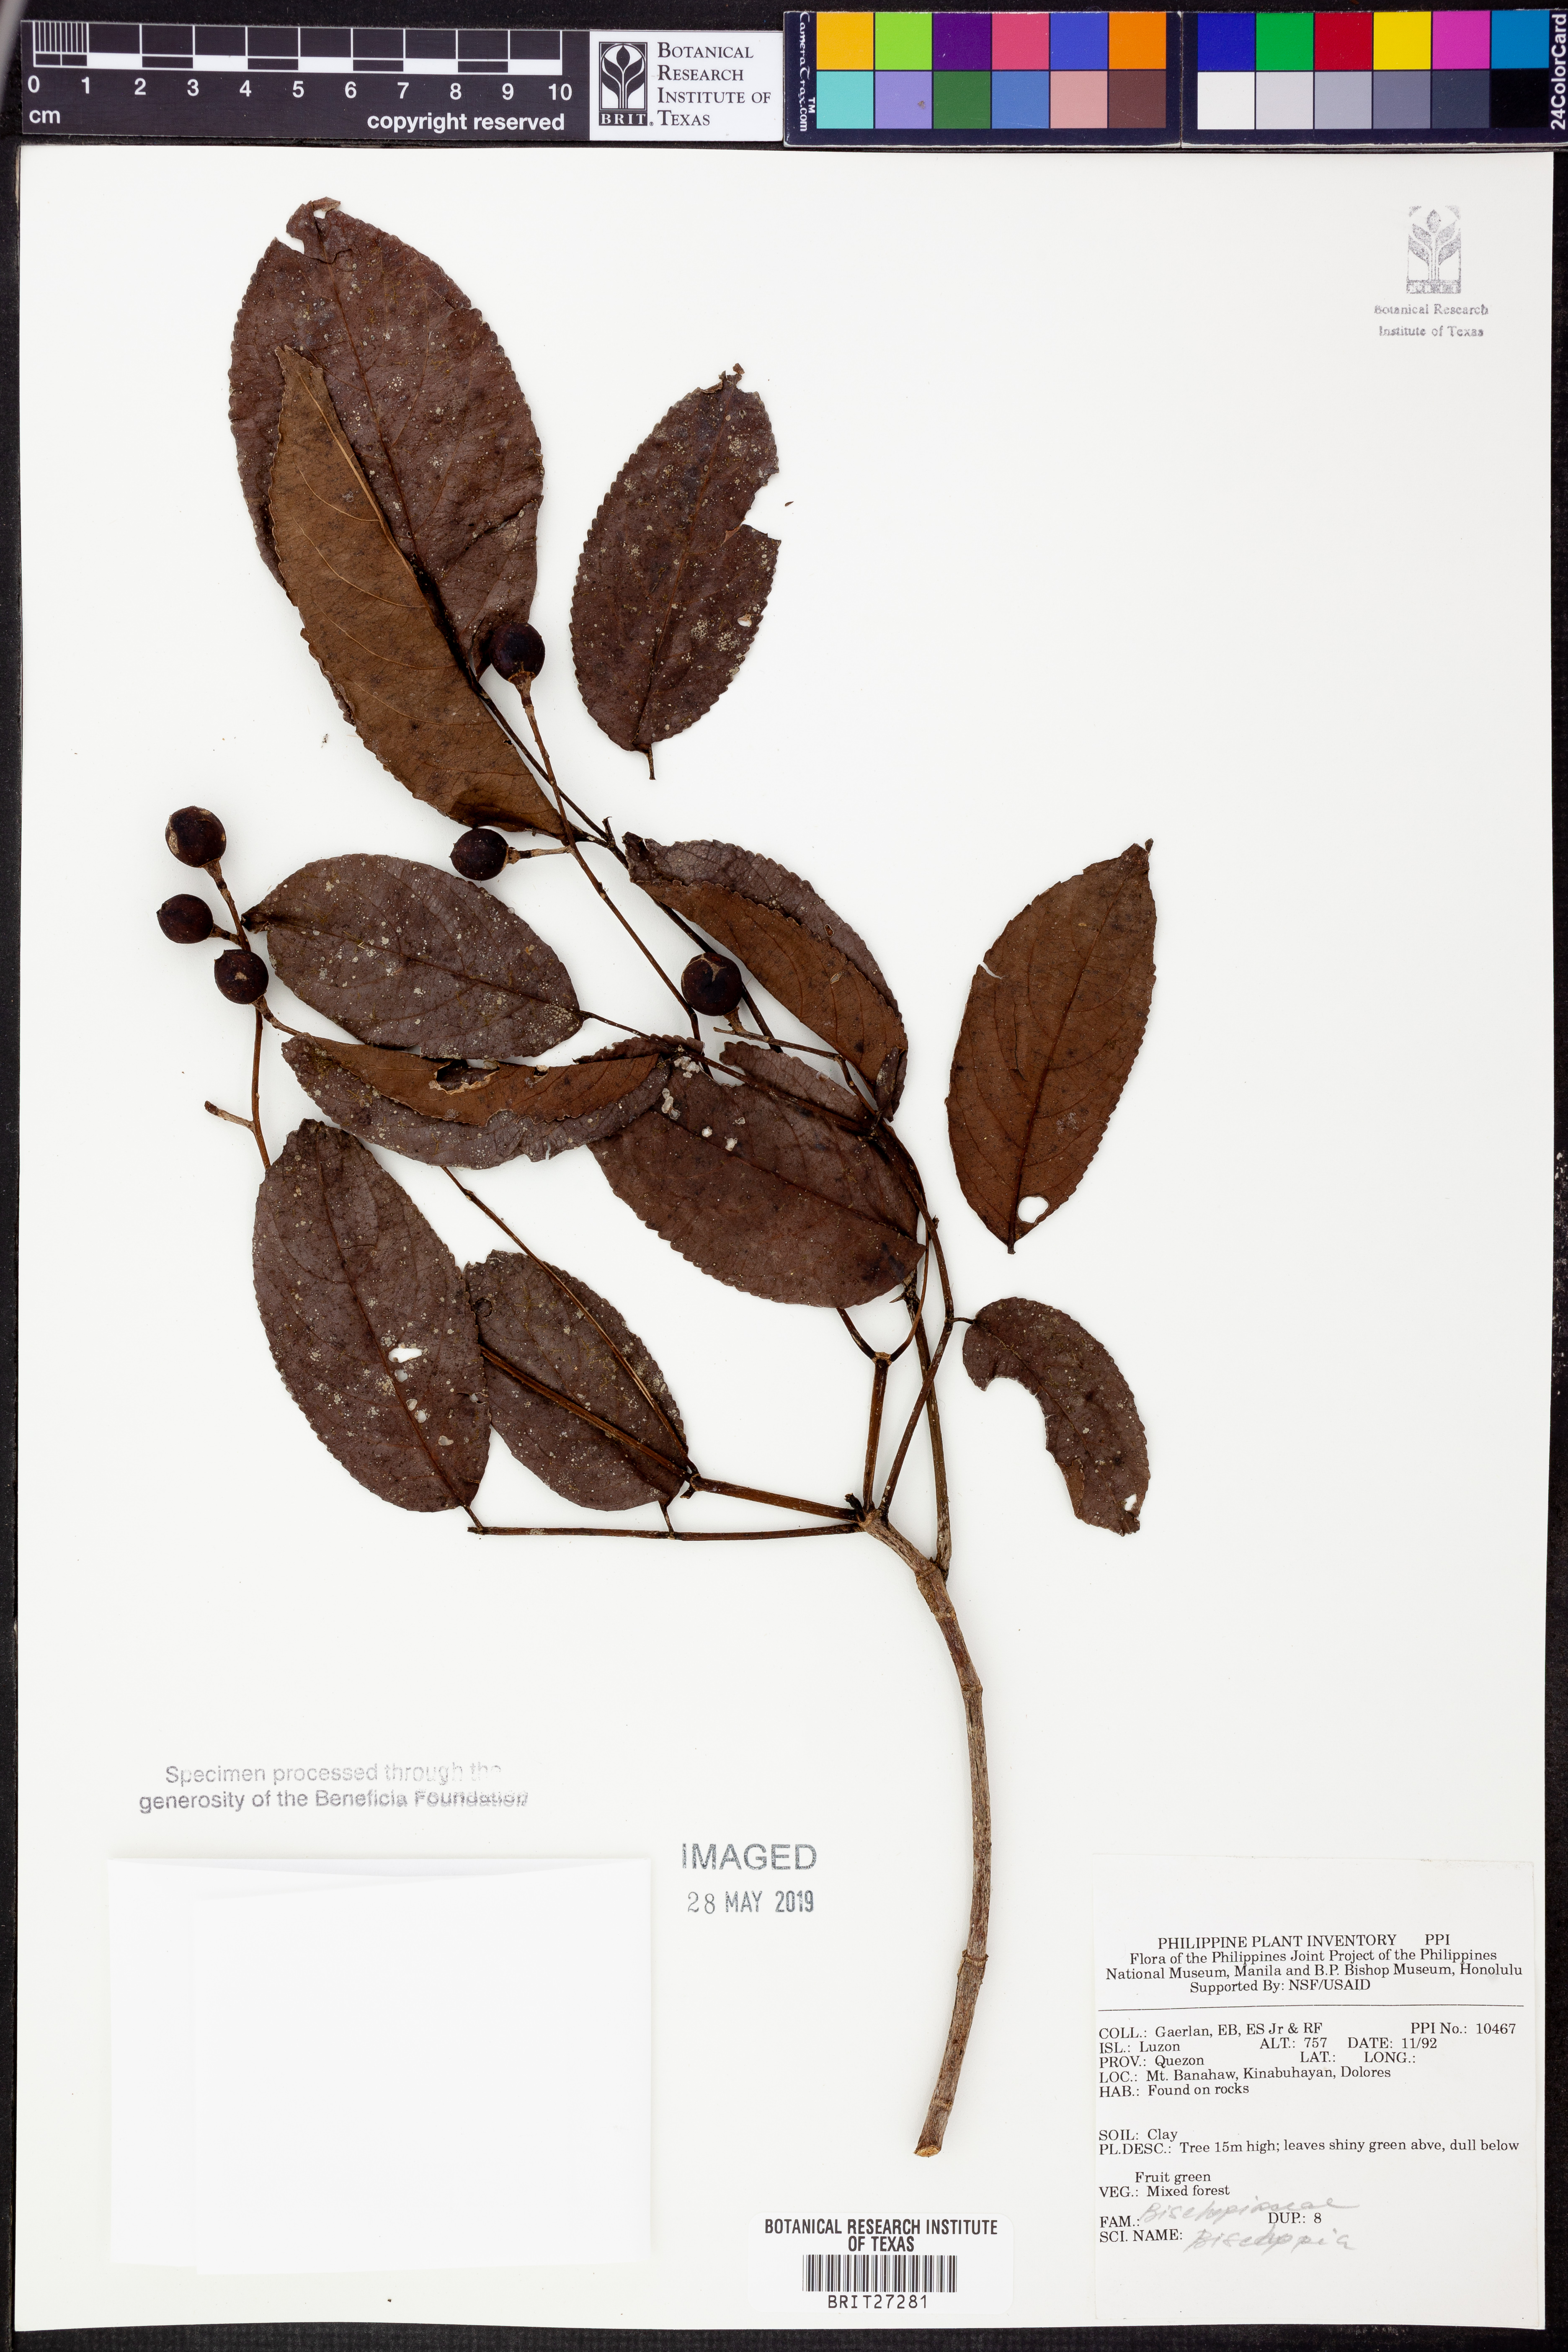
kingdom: Plantae
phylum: Tracheophyta
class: Magnoliopsida
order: Malpighiales
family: Phyllanthaceae
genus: Bischofia
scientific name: Bischofia
